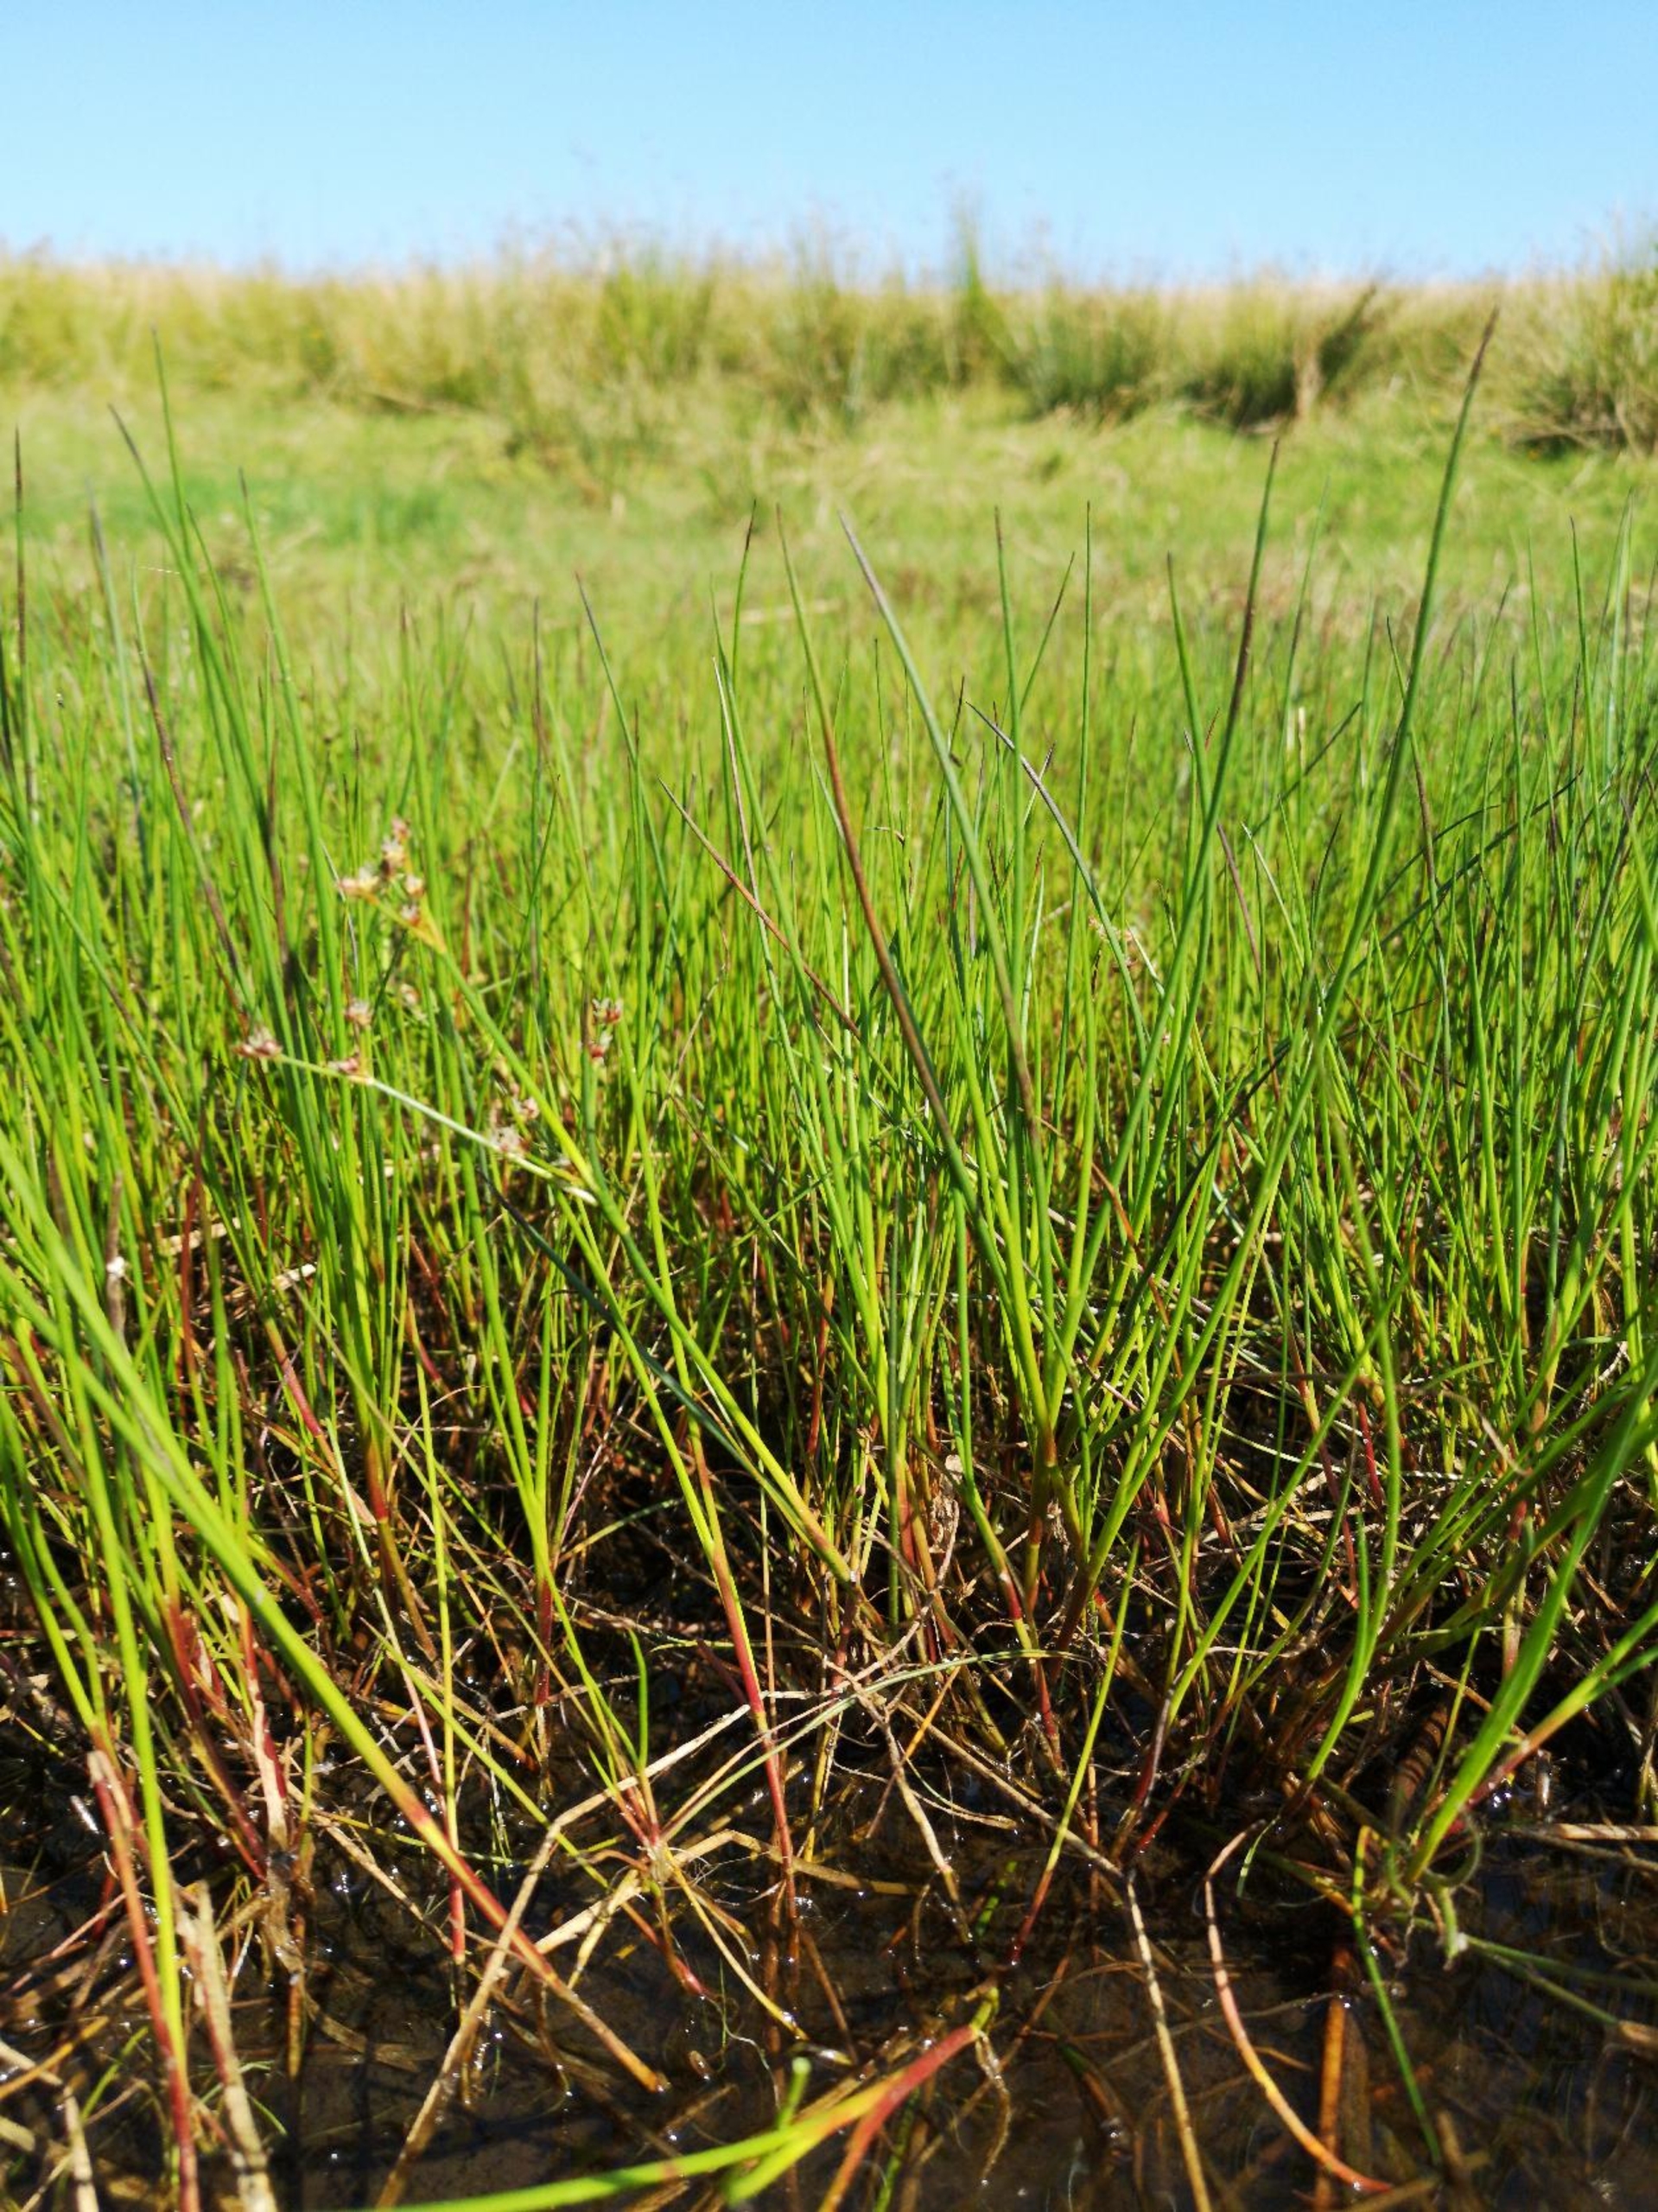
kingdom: Plantae
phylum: Tracheophyta
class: Liliopsida
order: Poales
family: Juncaceae
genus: Juncus
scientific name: Juncus articulatus
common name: Glanskapslet siv
